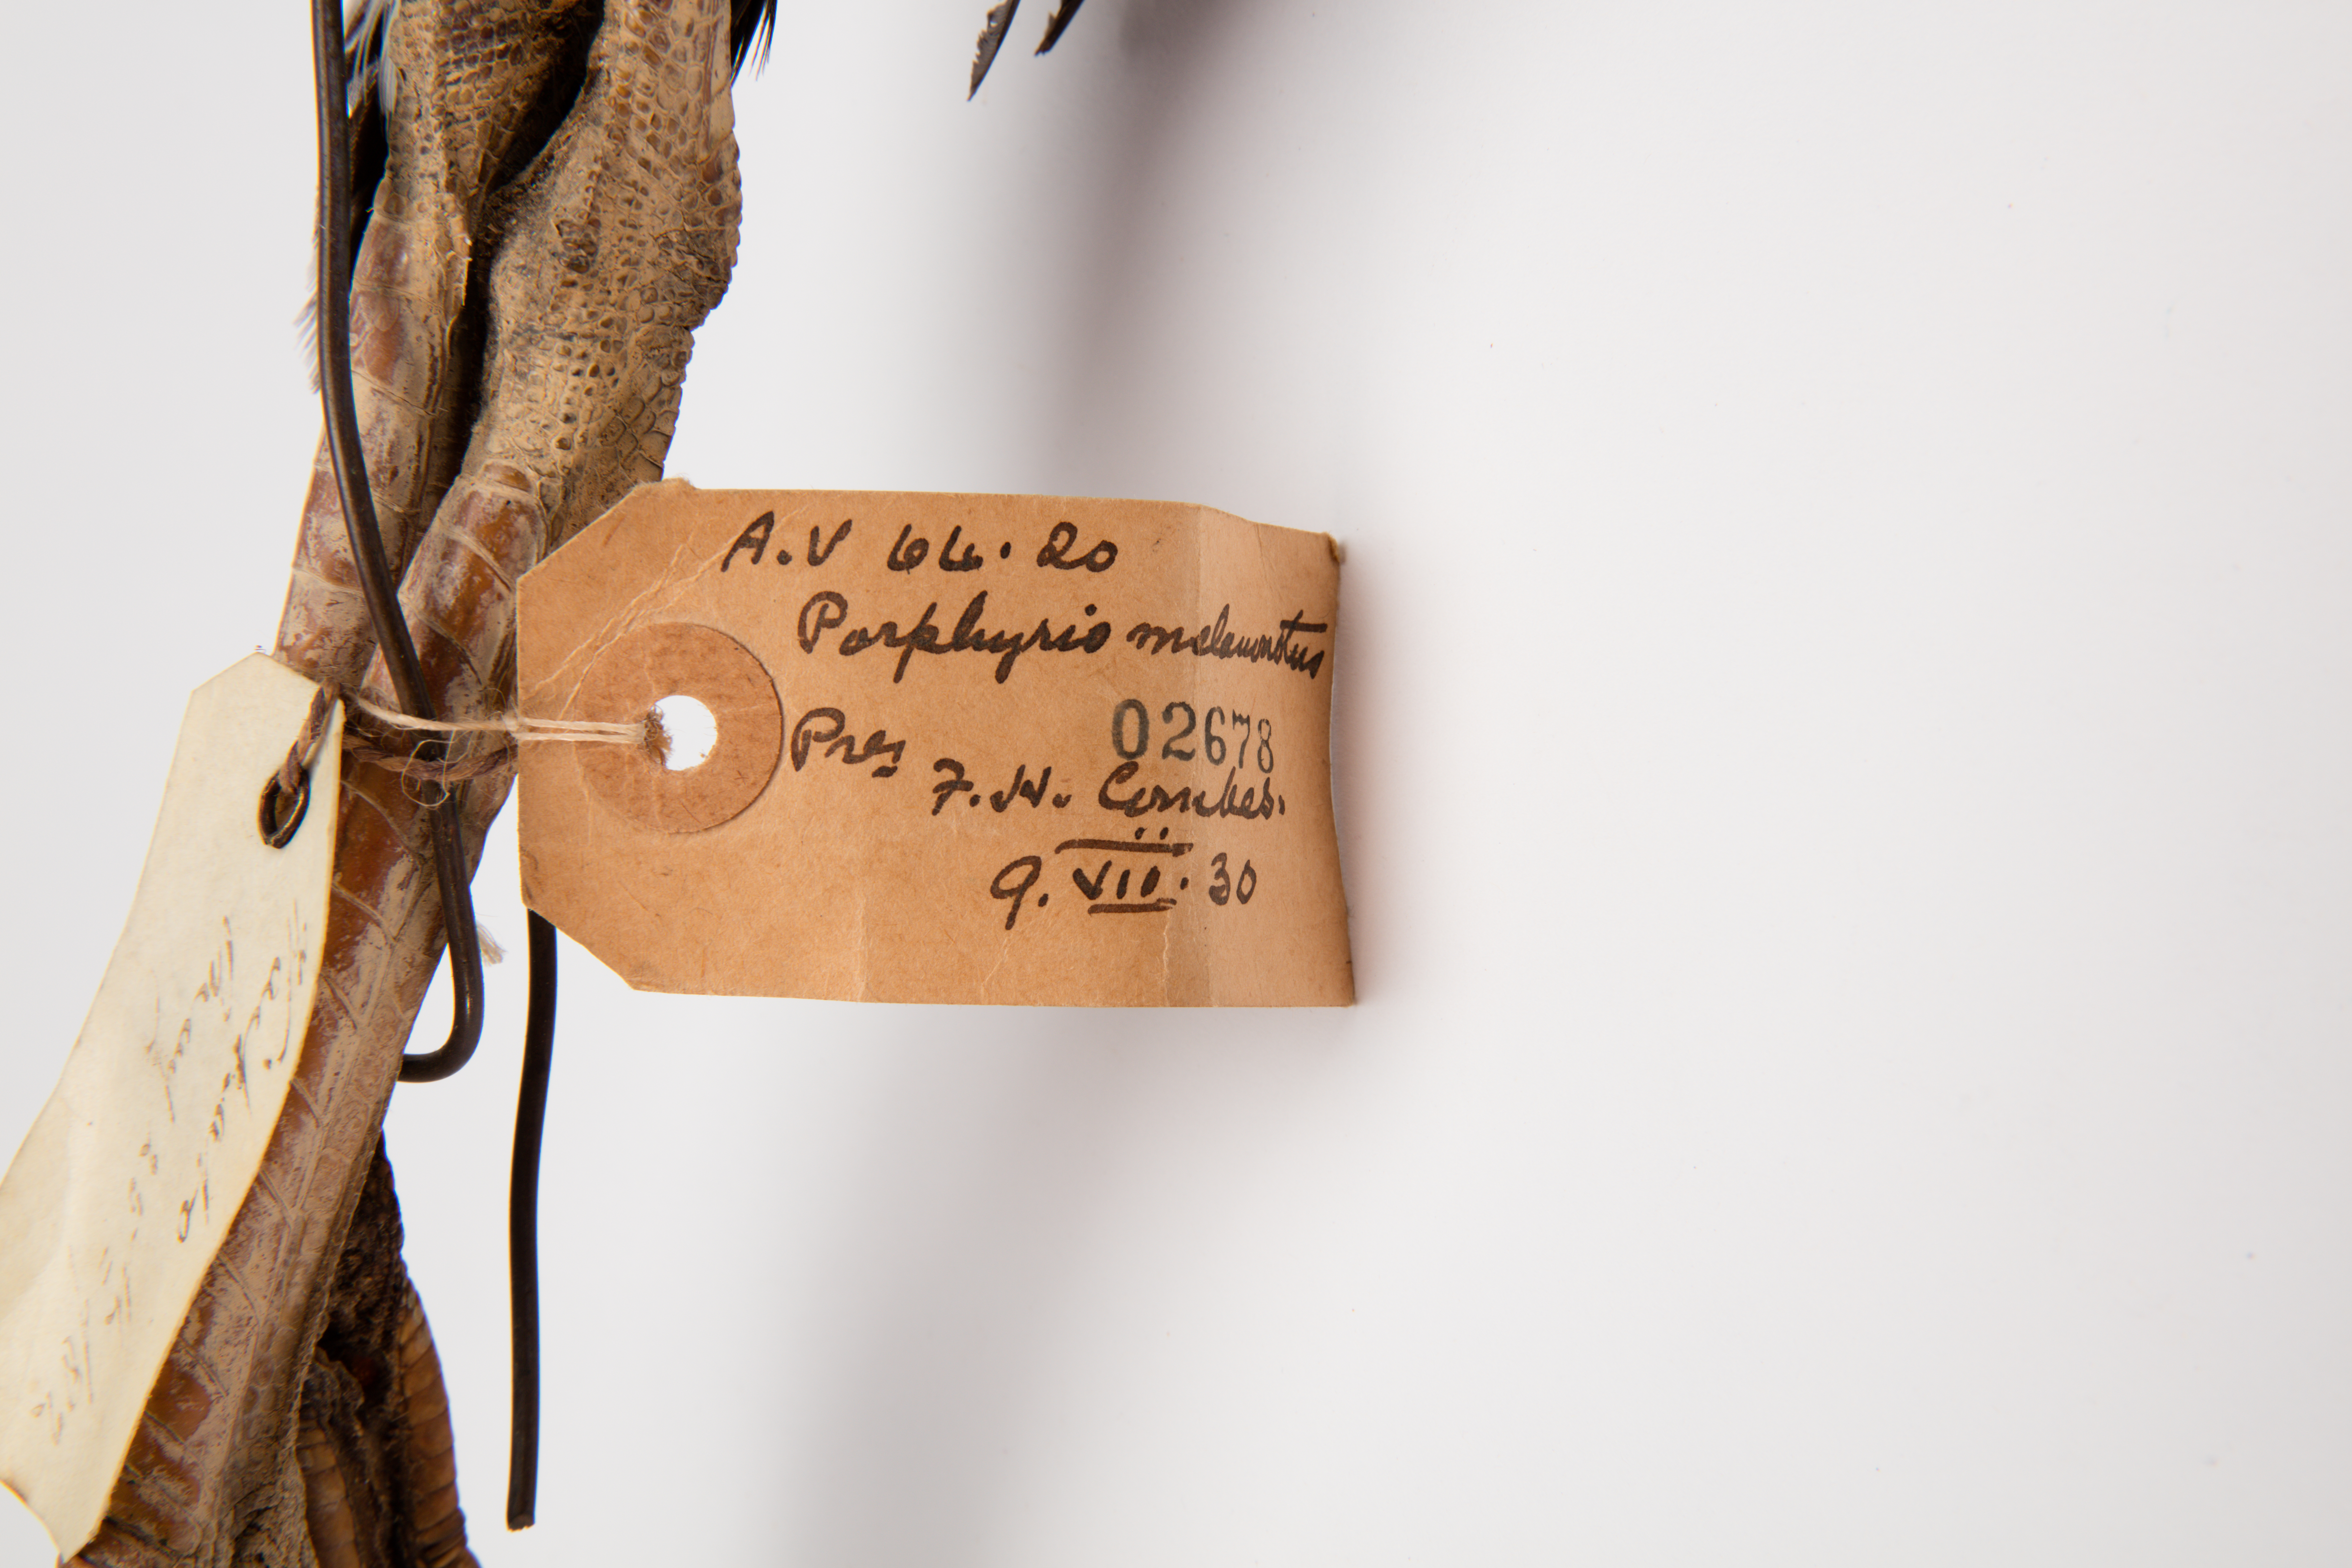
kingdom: Animalia
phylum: Chordata
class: Aves
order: Gruiformes
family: Rallidae
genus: Porphyrio
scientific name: Porphyrio melanotus
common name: Australasian swamphen
